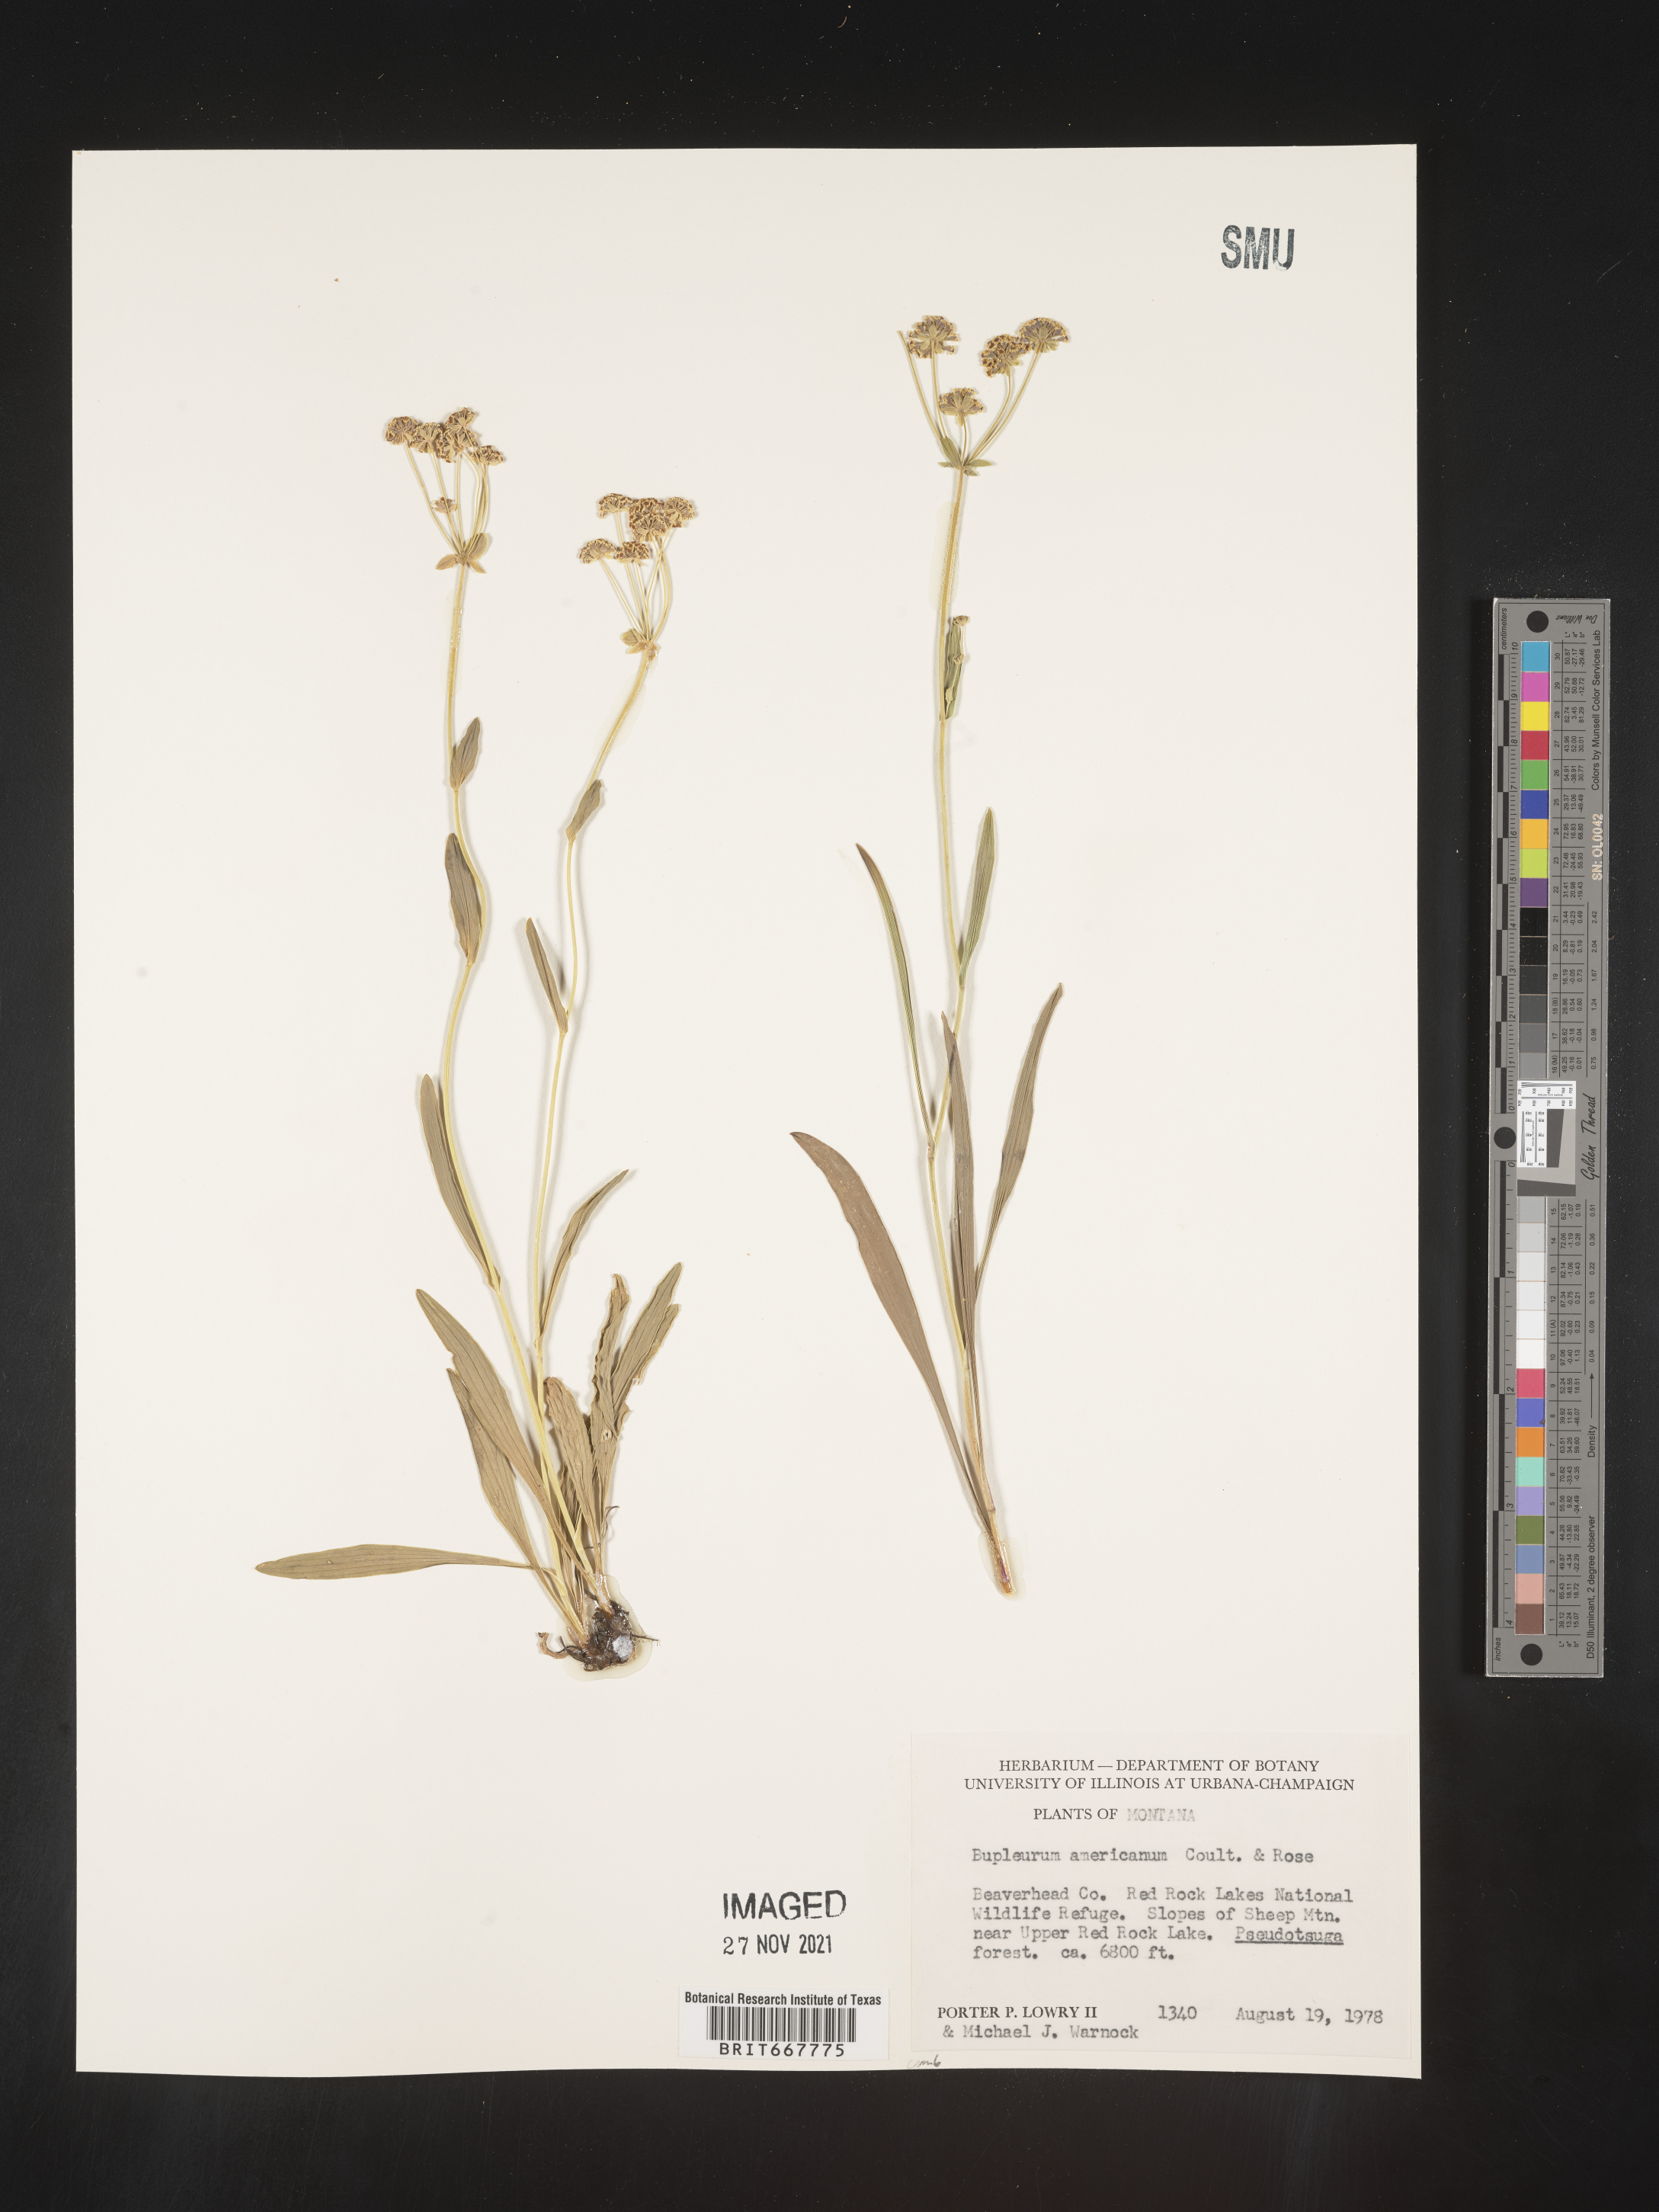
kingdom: Plantae
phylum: Tracheophyta
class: Magnoliopsida
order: Apiales
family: Apiaceae
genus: Bupleurum
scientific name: Bupleurum
